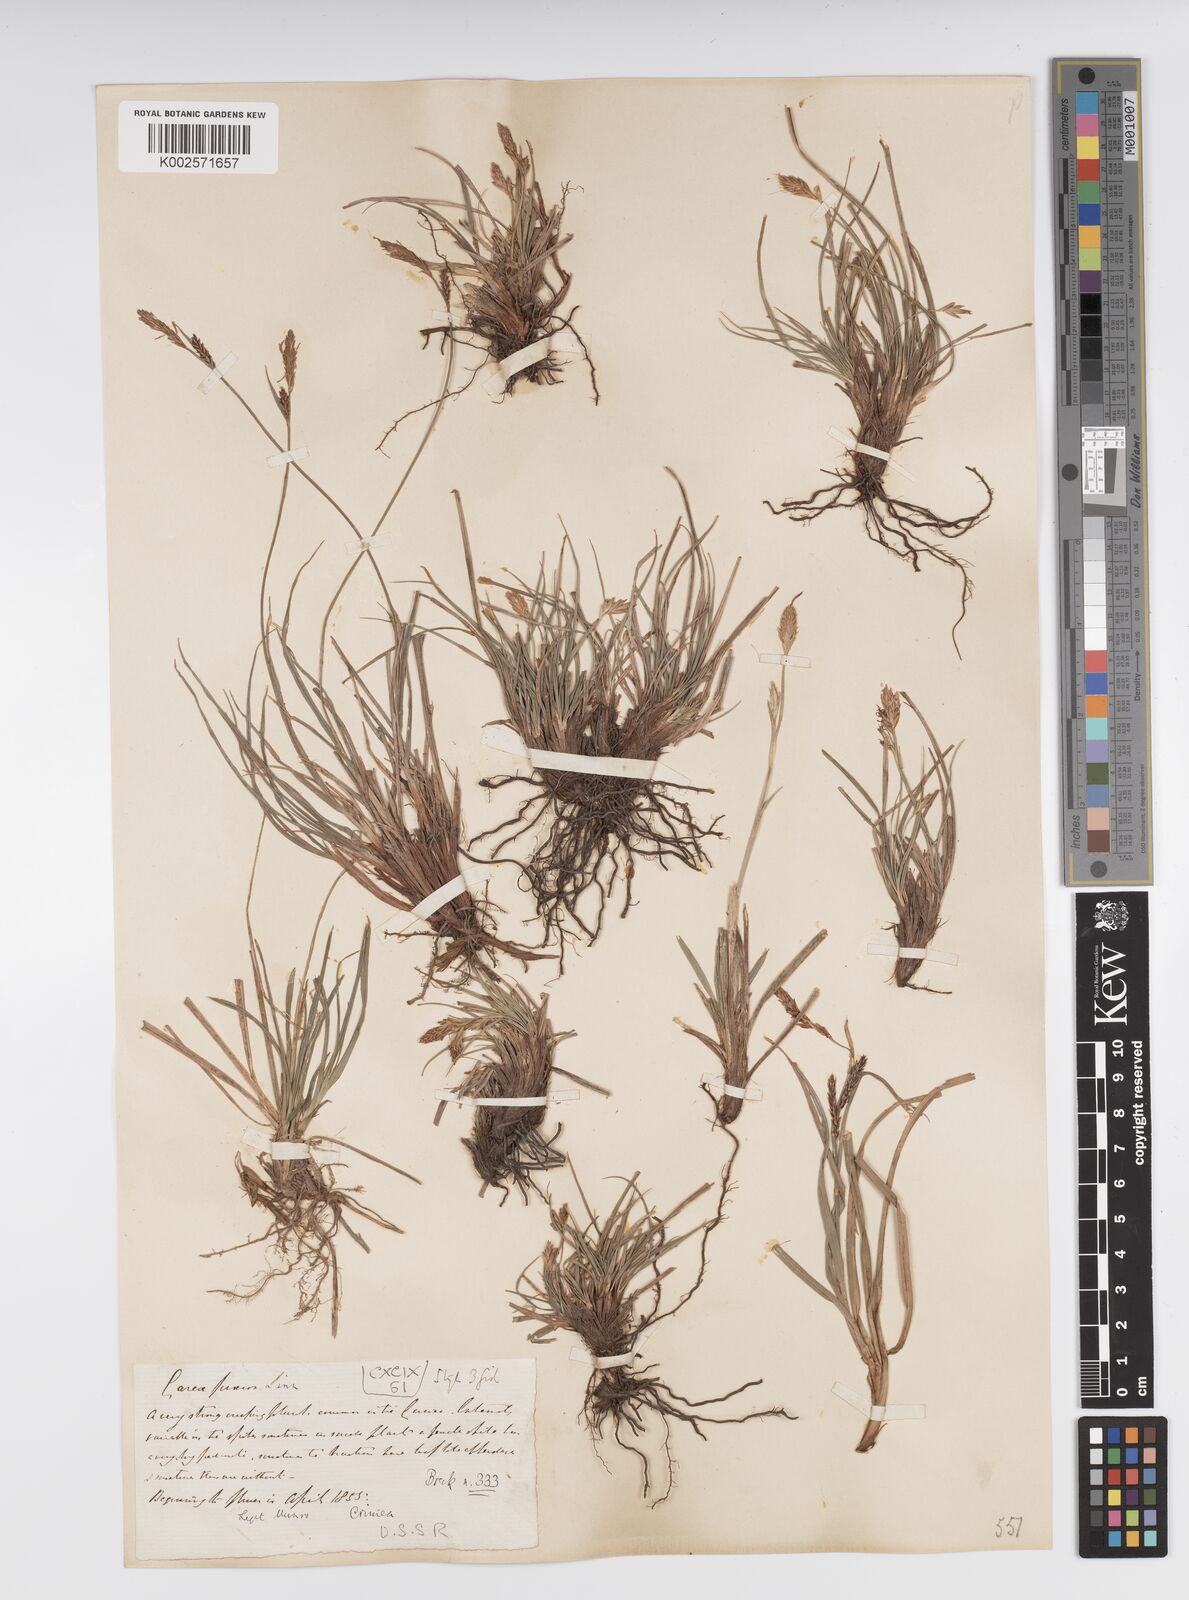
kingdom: Plantae
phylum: Tracheophyta
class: Liliopsida
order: Poales
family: Cyperaceae
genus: Carex
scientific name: Carex caryophyllea
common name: Spring sedge
